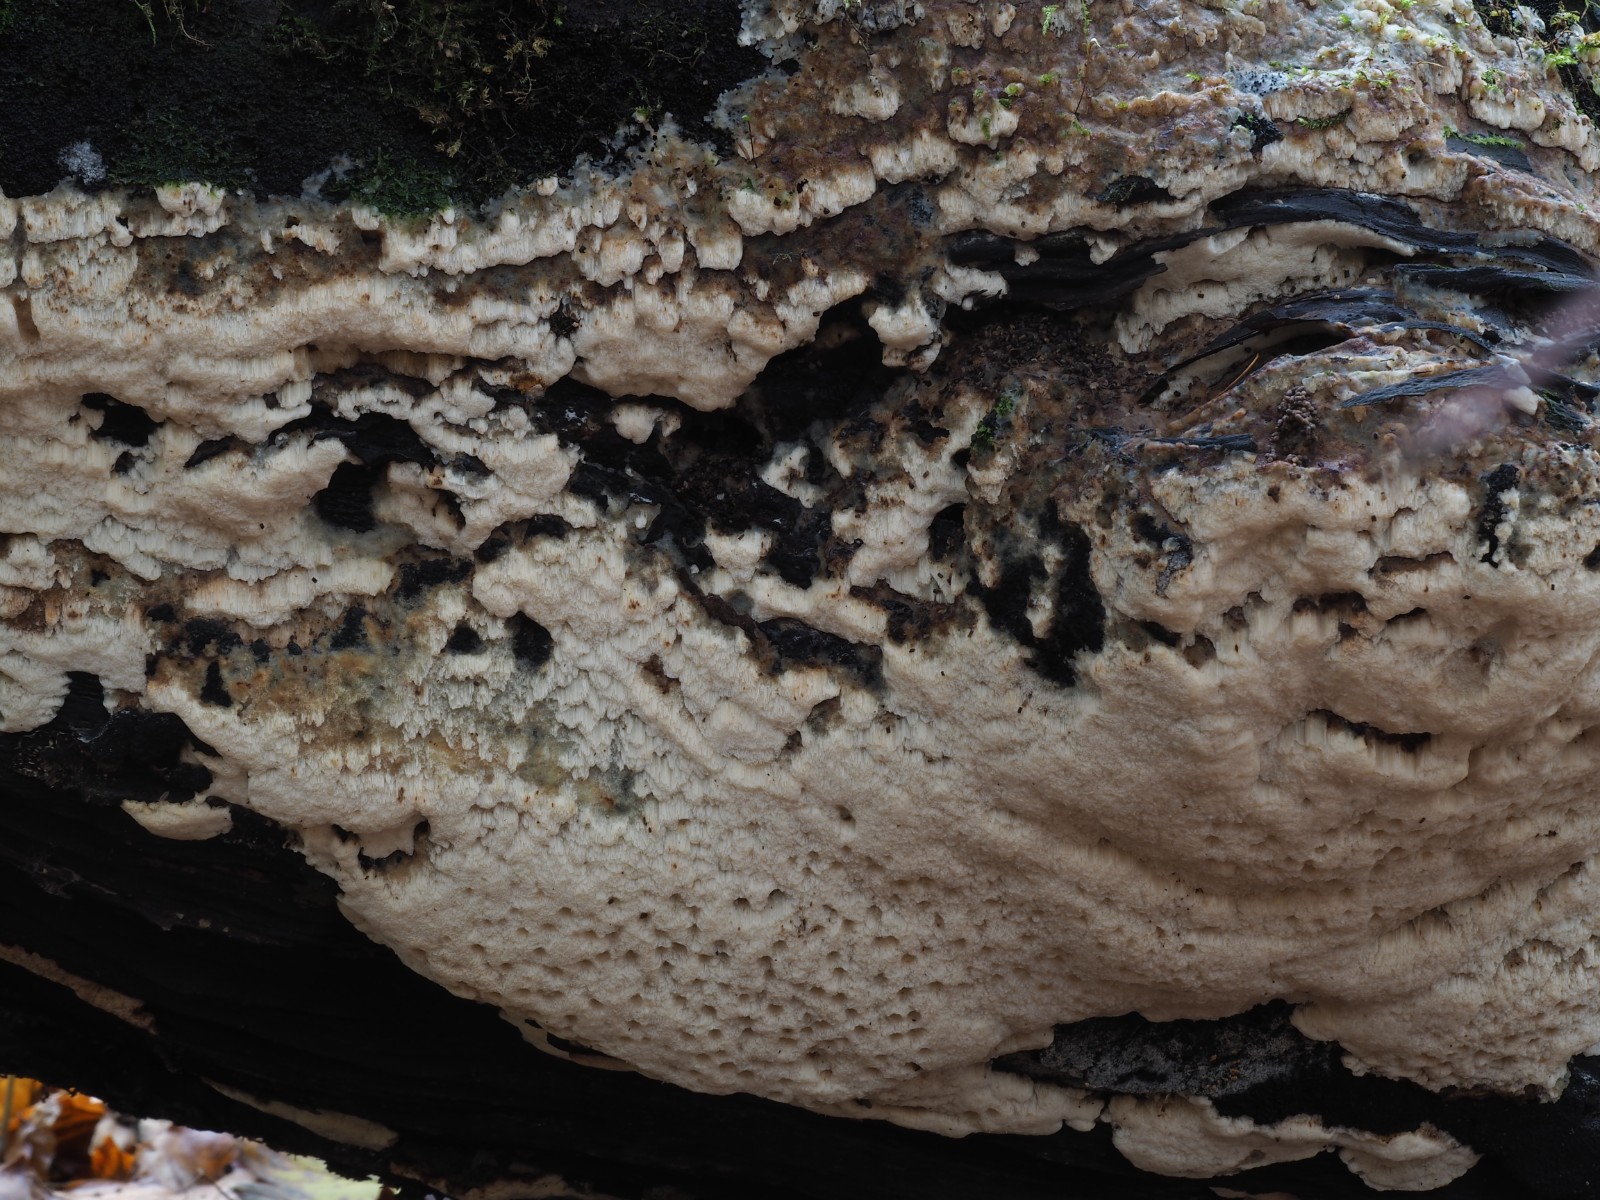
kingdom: Fungi
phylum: Basidiomycota
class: Agaricomycetes
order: Polyporales
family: Meruliaceae
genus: Physisporinus
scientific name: Physisporinus vitreus
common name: mastesvamp
